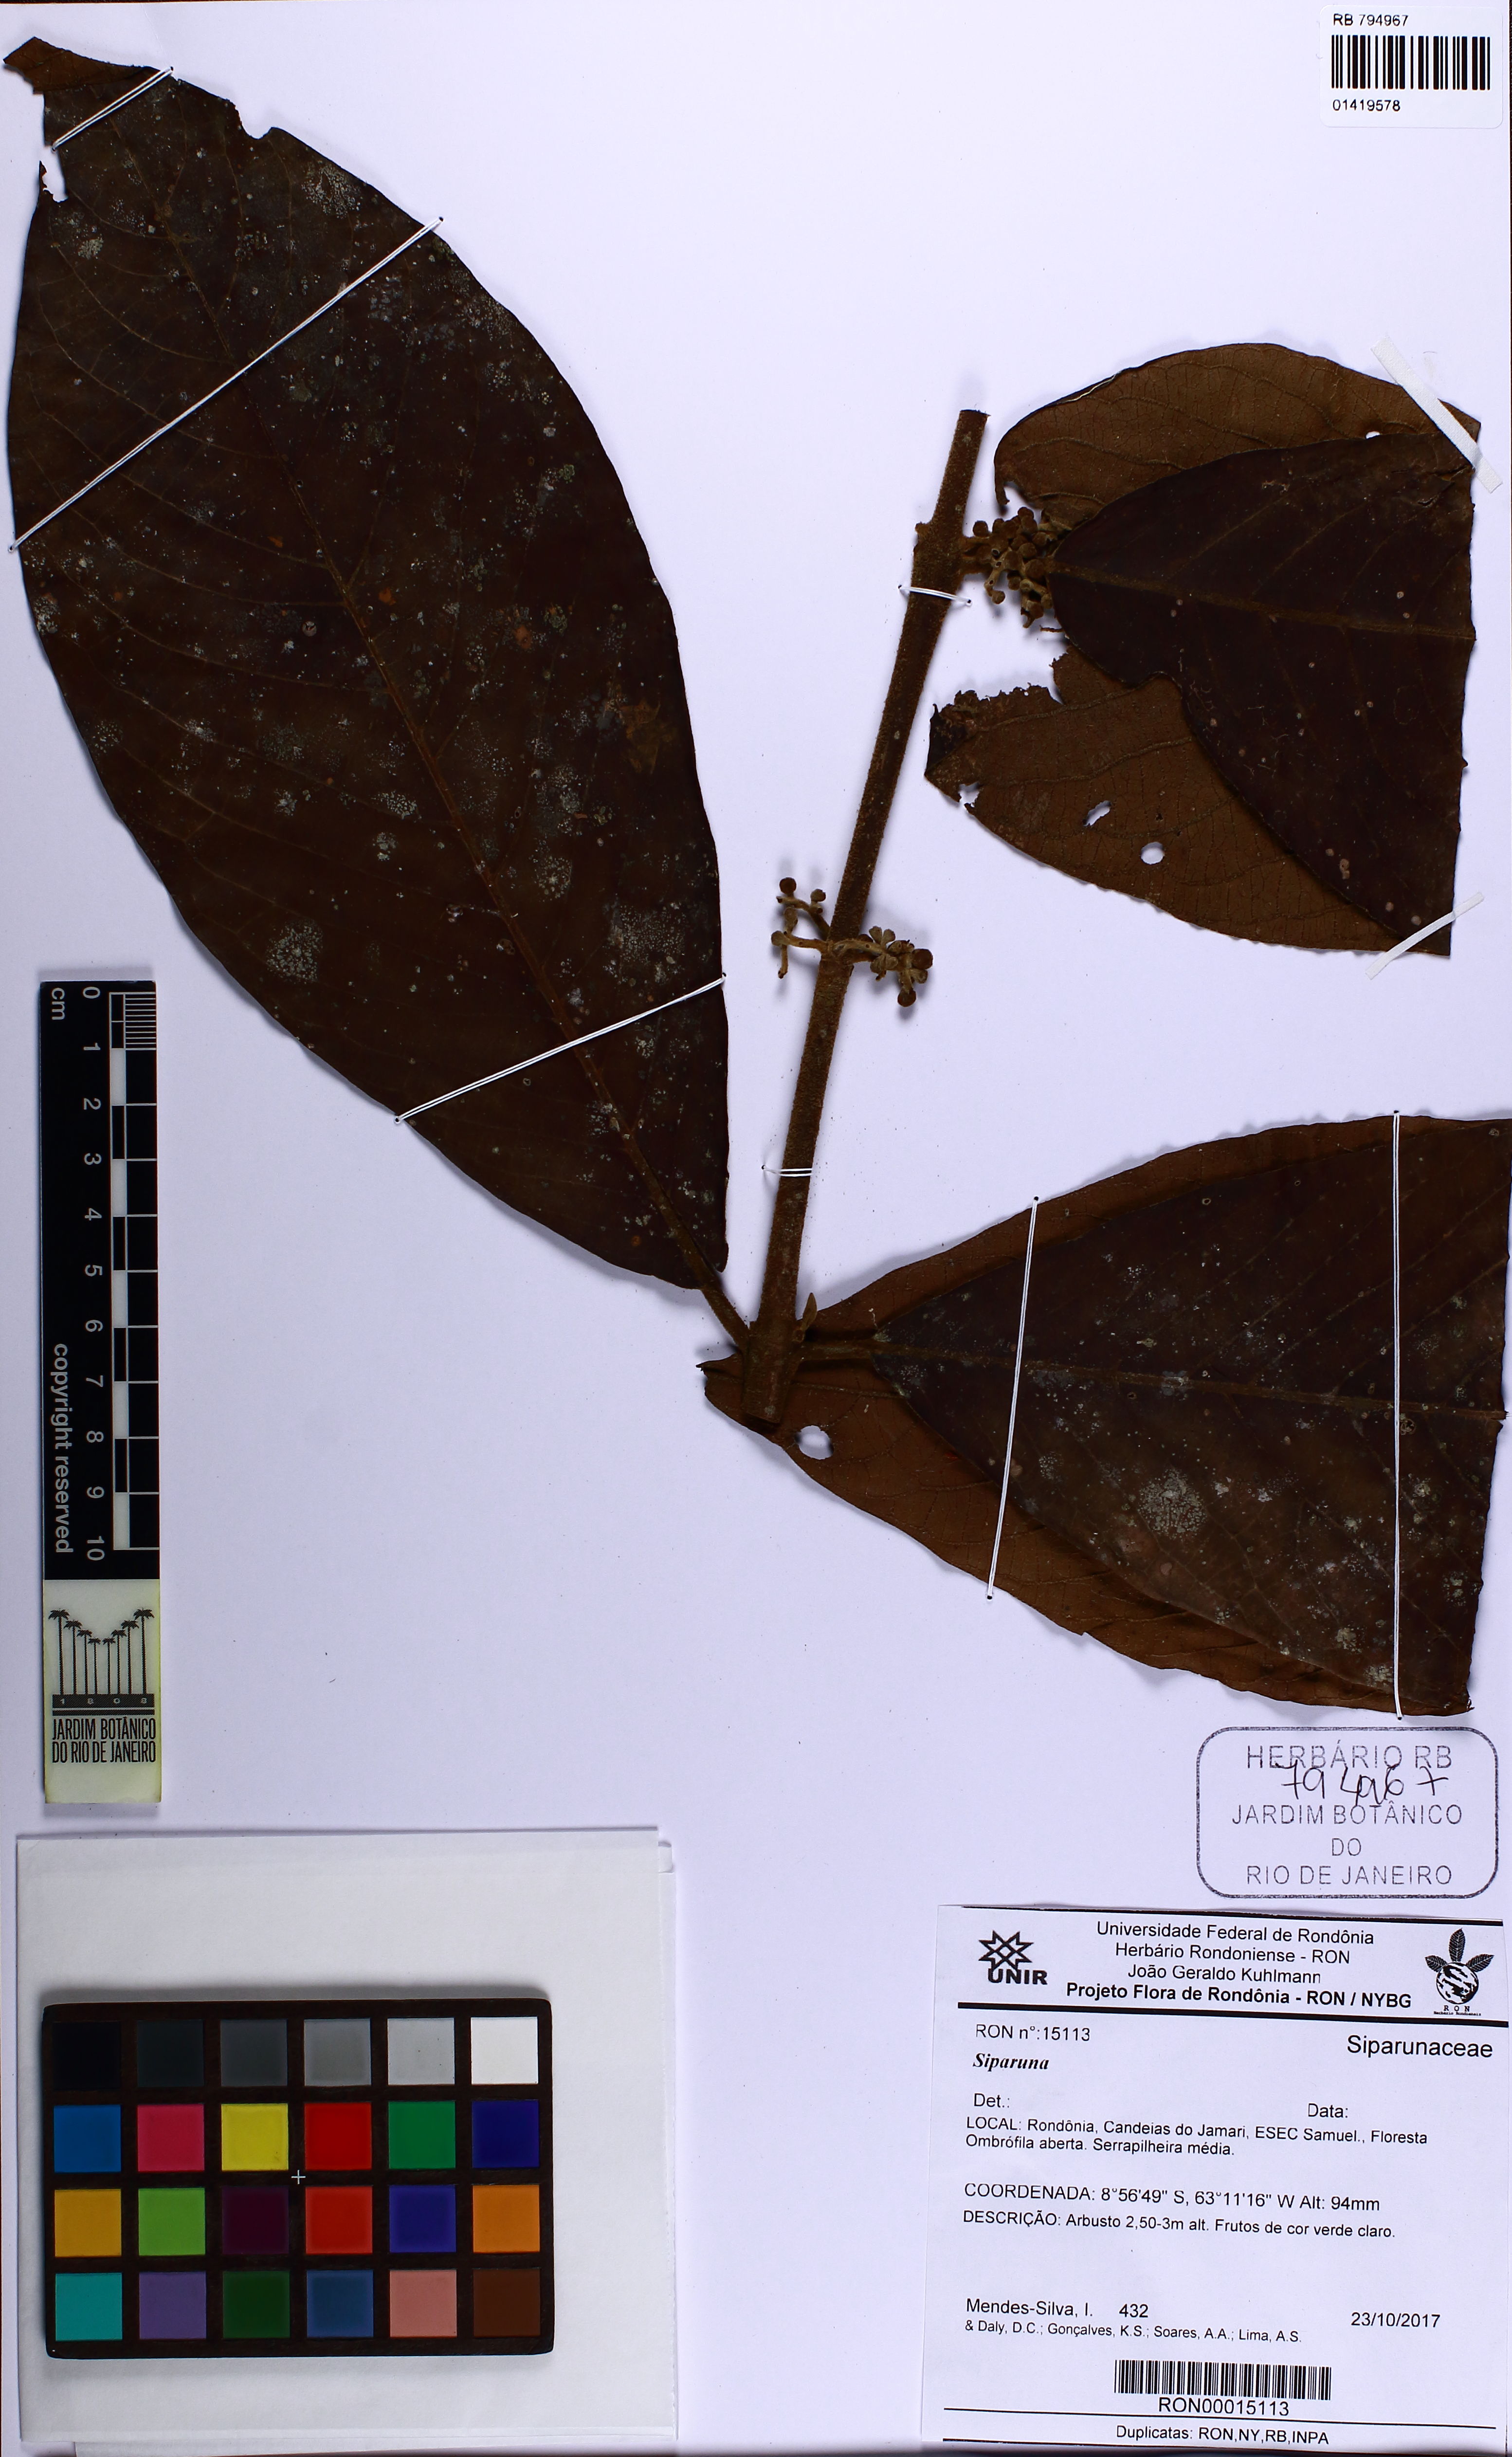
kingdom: Plantae
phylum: Tracheophyta
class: Magnoliopsida
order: Laurales
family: Siparunaceae
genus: Siparuna
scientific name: Siparuna
